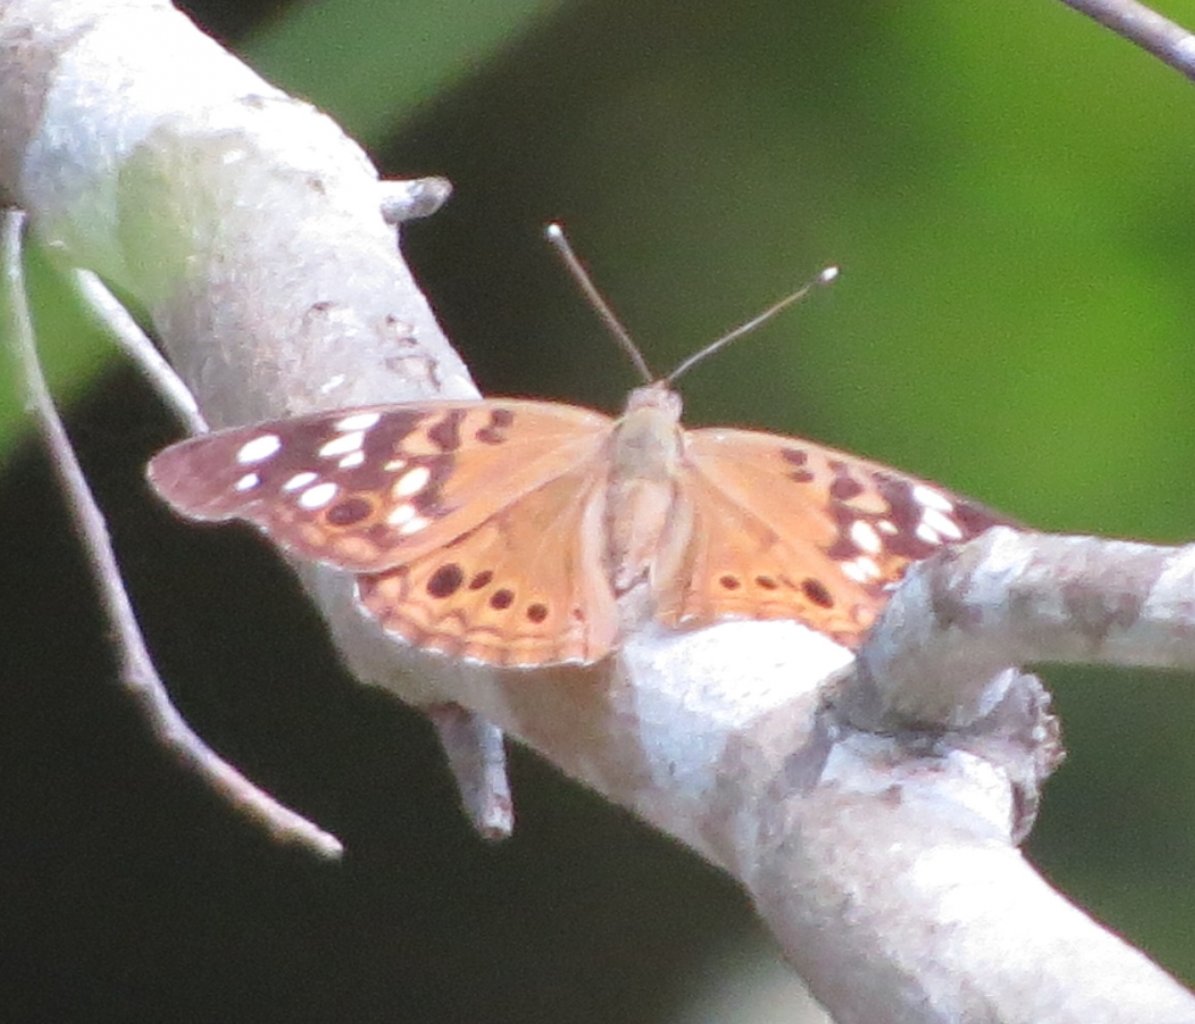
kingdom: Animalia
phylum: Arthropoda
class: Insecta
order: Lepidoptera
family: Nymphalidae
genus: Asterocampa
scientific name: Asterocampa celtis
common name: Hackberry Emperor
